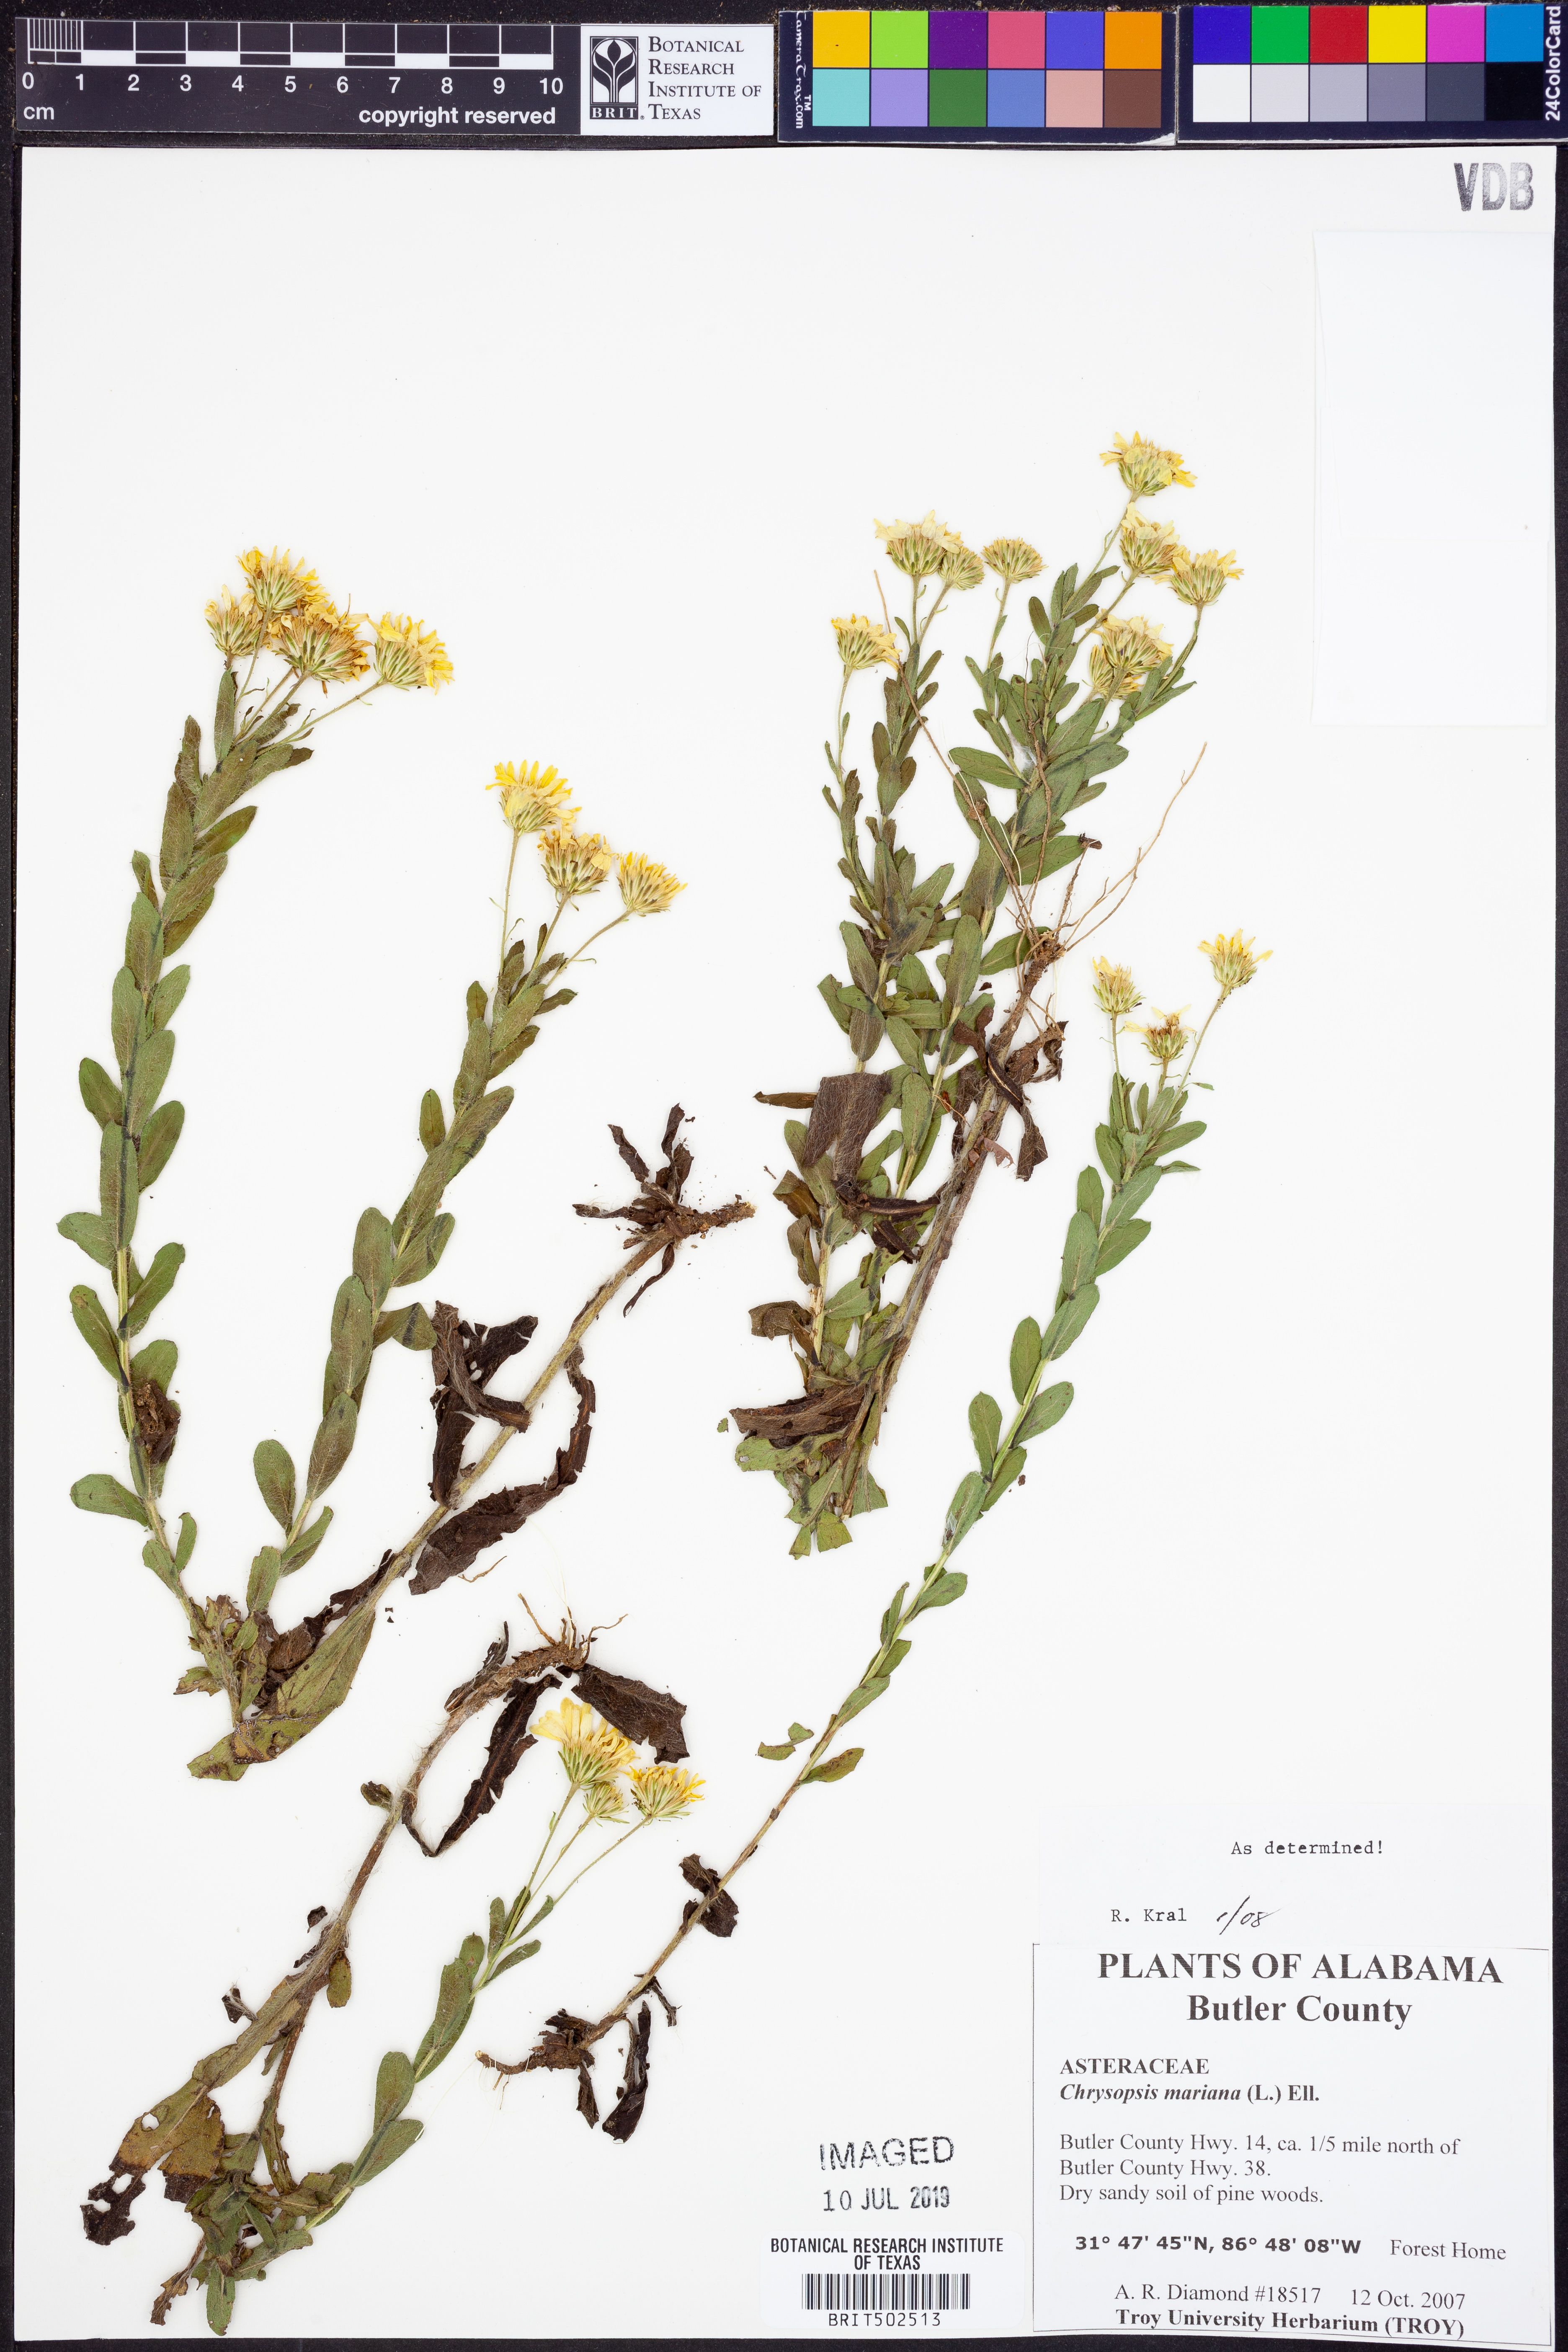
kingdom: Plantae
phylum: Tracheophyta
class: Magnoliopsida
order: Asterales
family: Asteraceae
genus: Chrysopsis
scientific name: Chrysopsis mariana
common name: Maryland golden-aster
